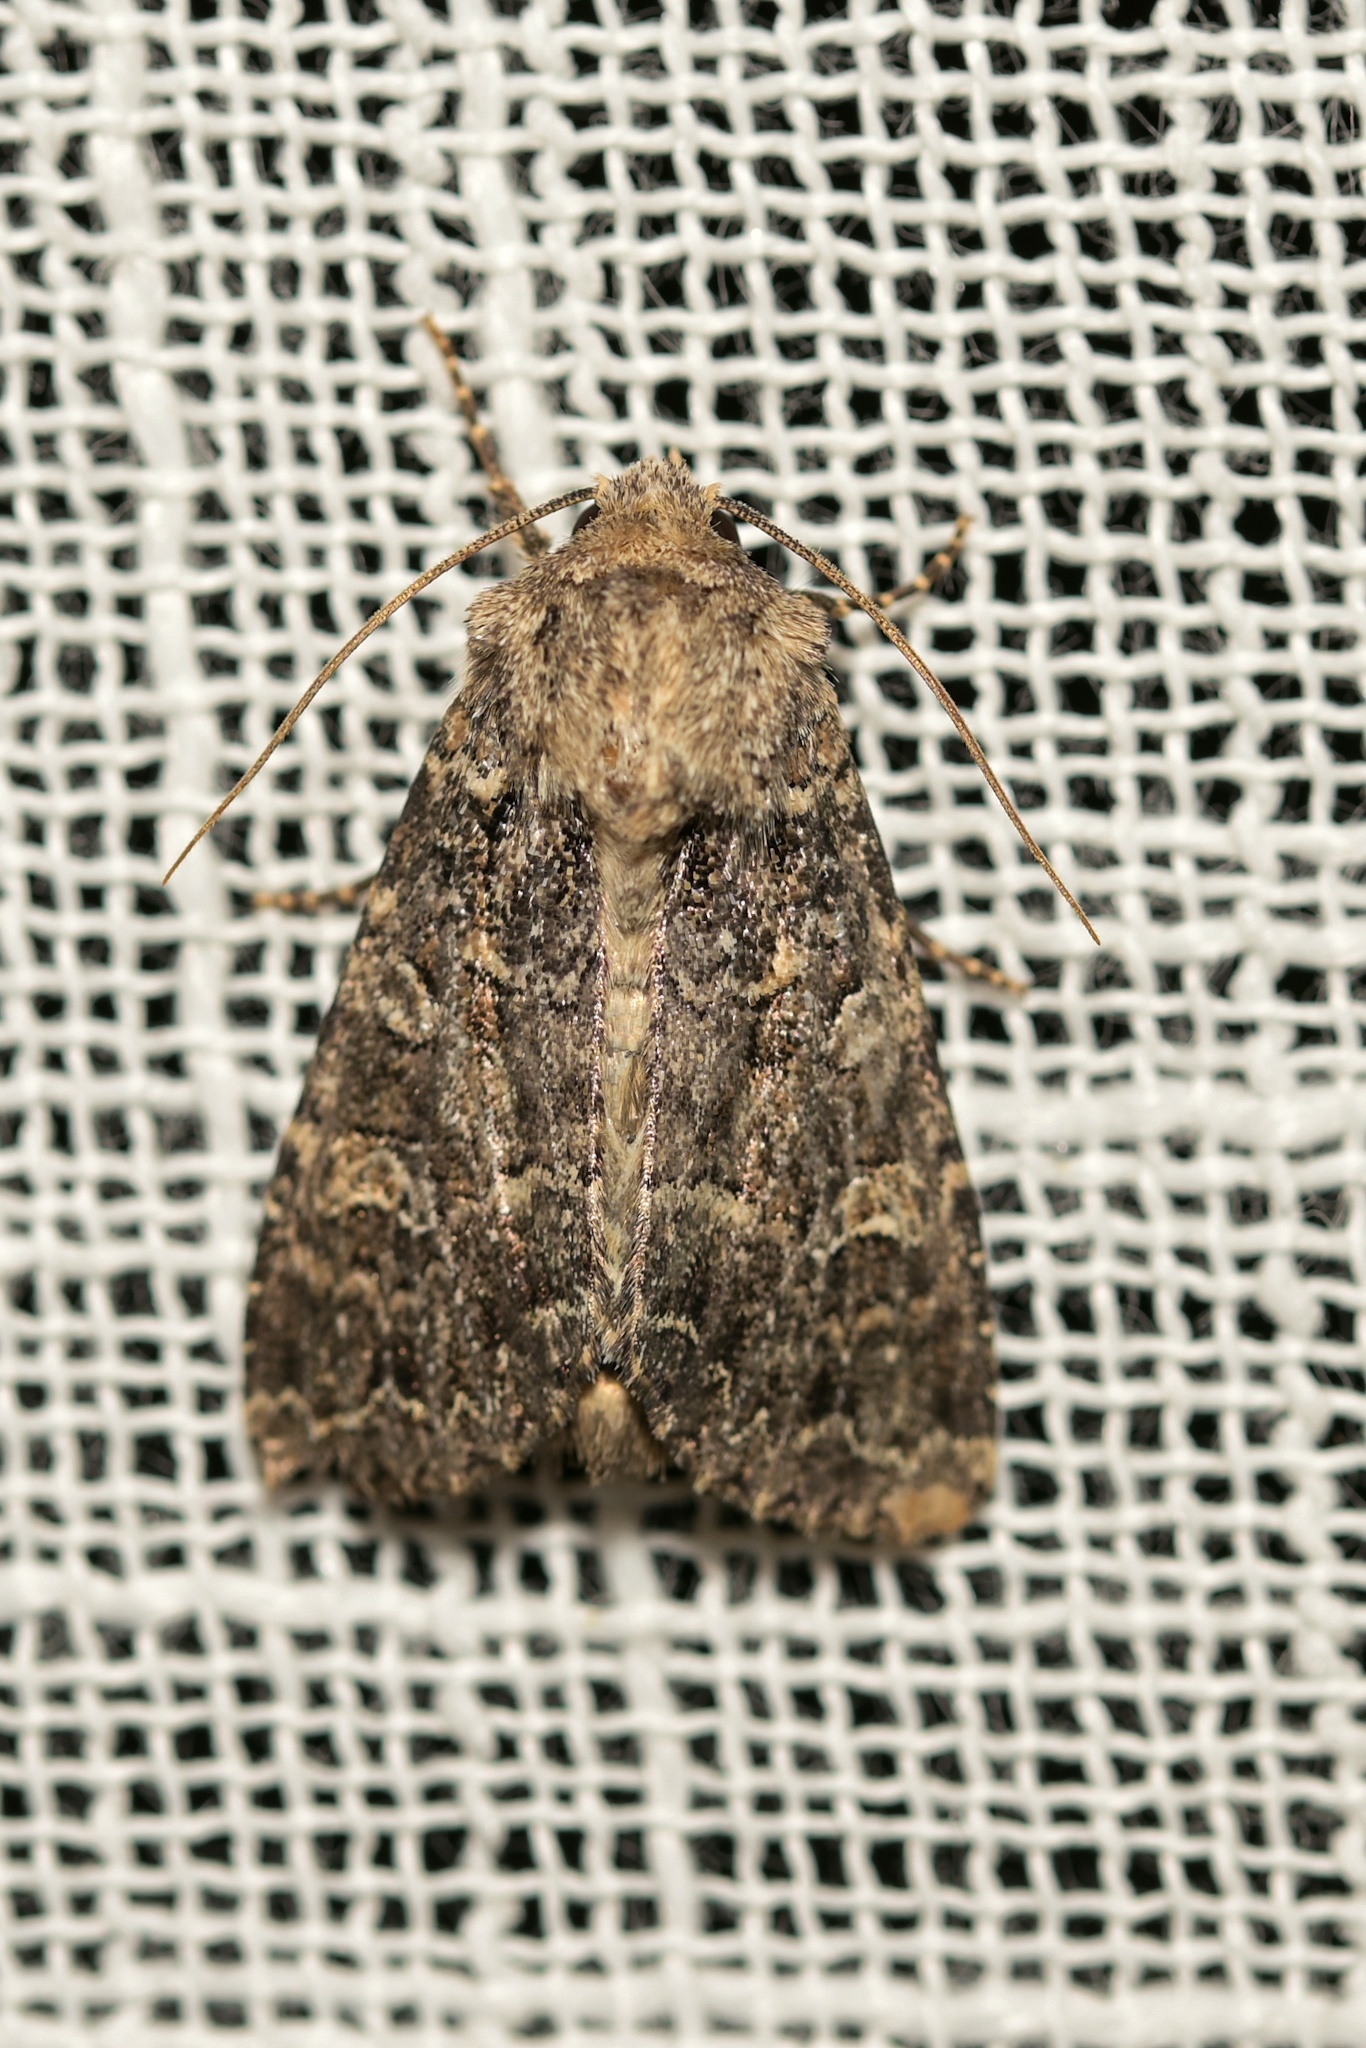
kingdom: Animalia
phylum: Arthropoda
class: Insecta
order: Lepidoptera
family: Noctuidae
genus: Apamea
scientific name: Apamea furva
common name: Confused
